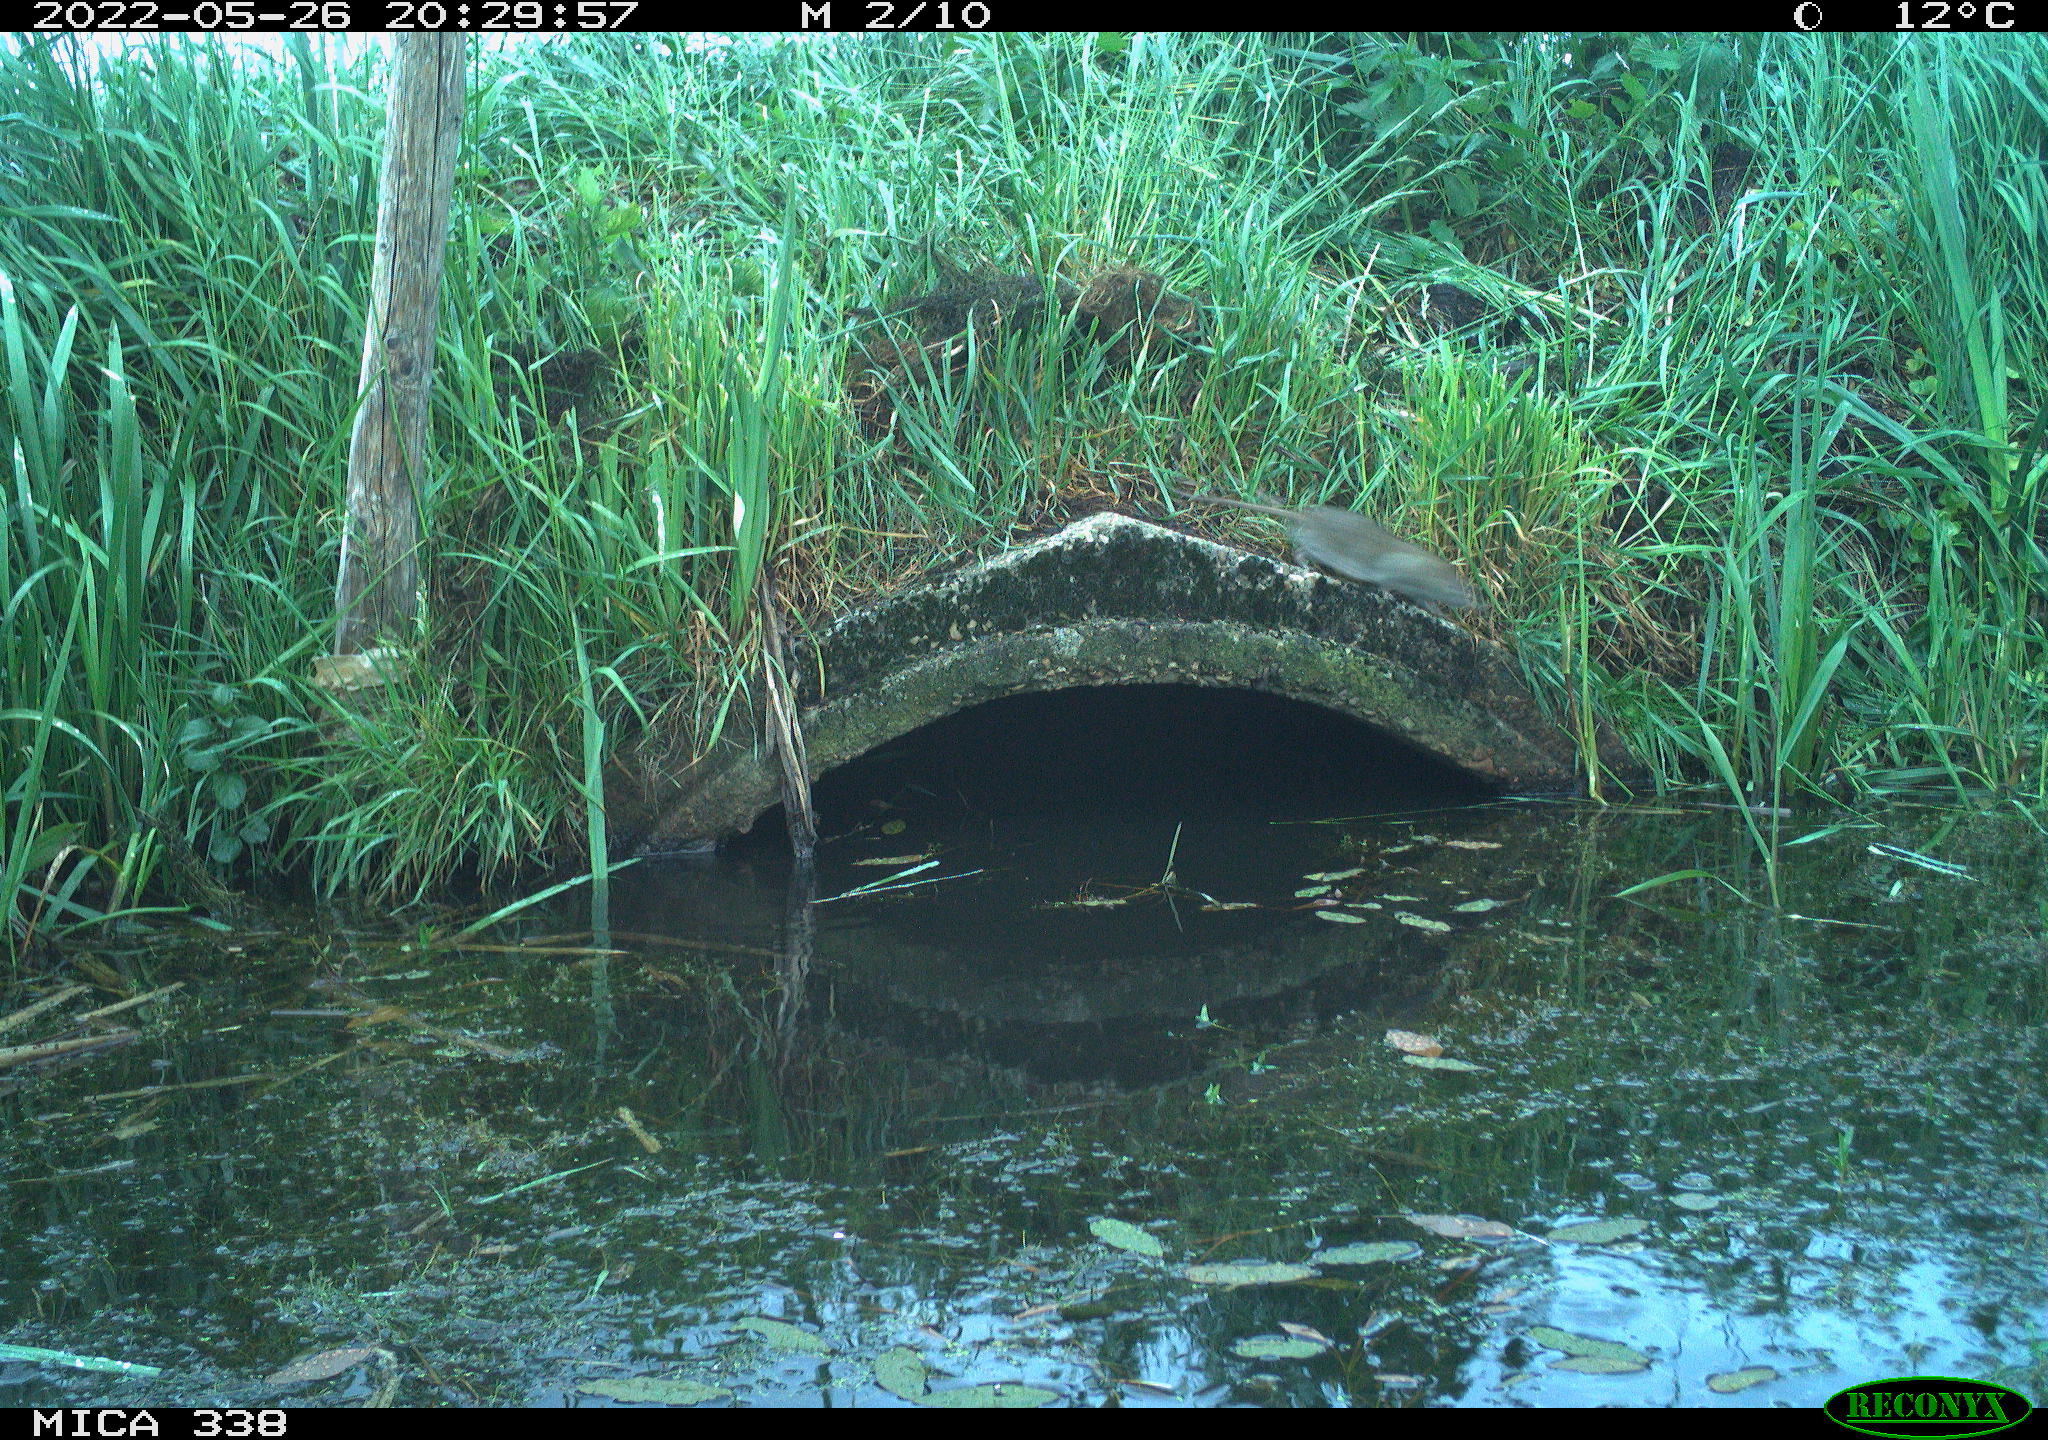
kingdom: Animalia
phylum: Chordata
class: Mammalia
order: Rodentia
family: Muridae
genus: Rattus
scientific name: Rattus norvegicus
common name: Brown rat
